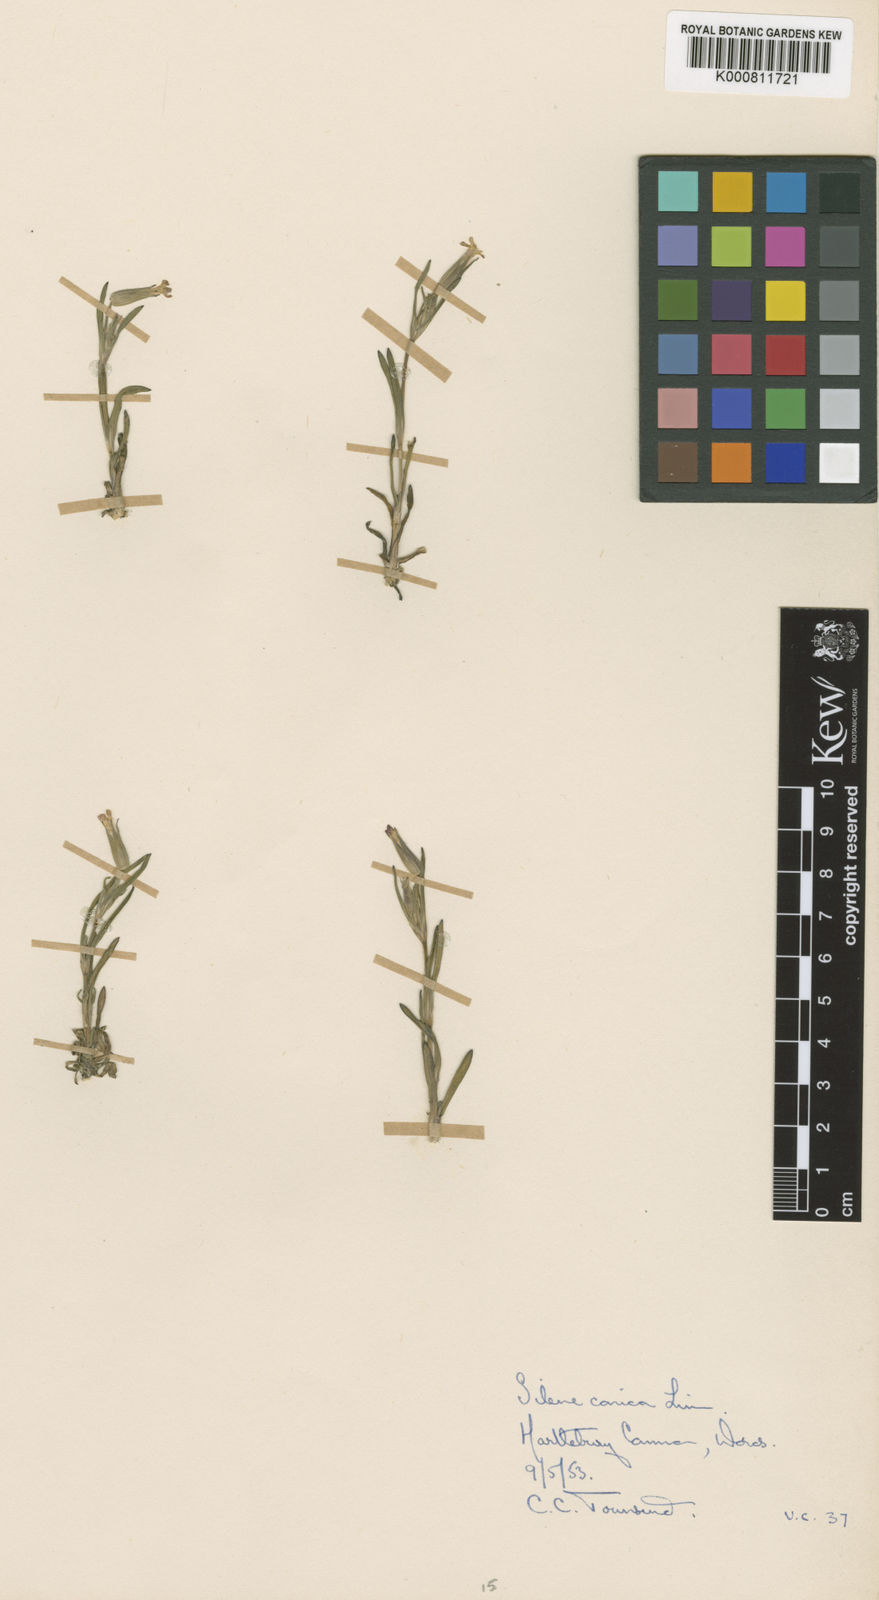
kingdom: Plantae
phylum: Tracheophyta
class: Magnoliopsida
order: Caryophyllales
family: Caryophyllaceae
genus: Silene
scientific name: Silene conica
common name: Sand catchfly
